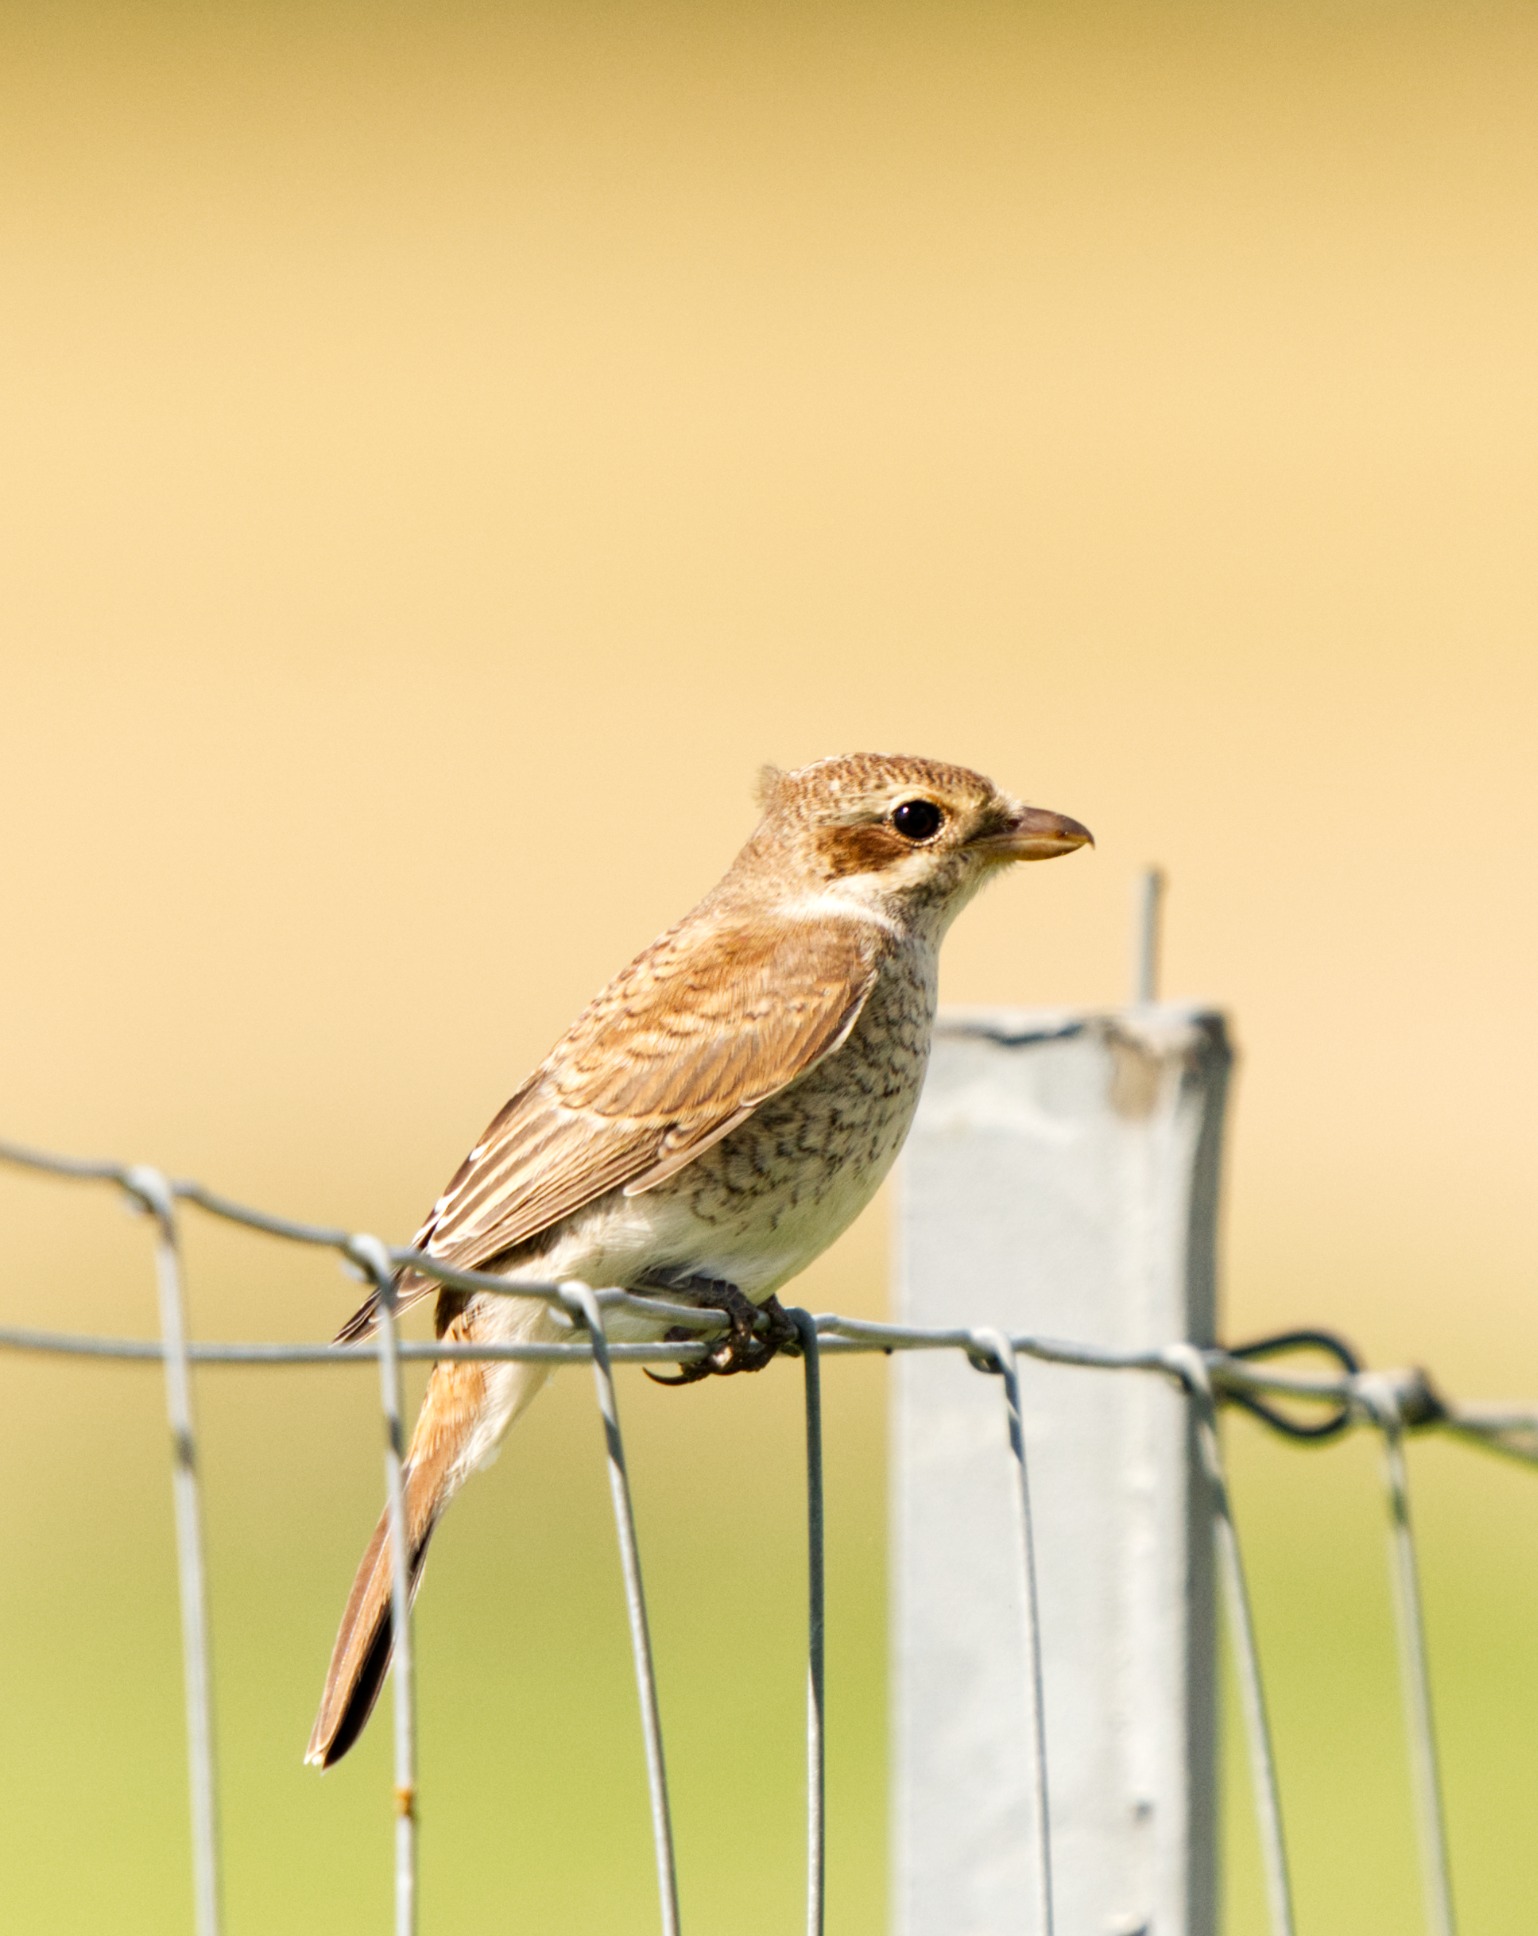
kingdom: Animalia
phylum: Chordata
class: Aves
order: Passeriformes
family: Laniidae
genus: Lanius
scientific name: Lanius collurio
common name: Rødrygget tornskade
